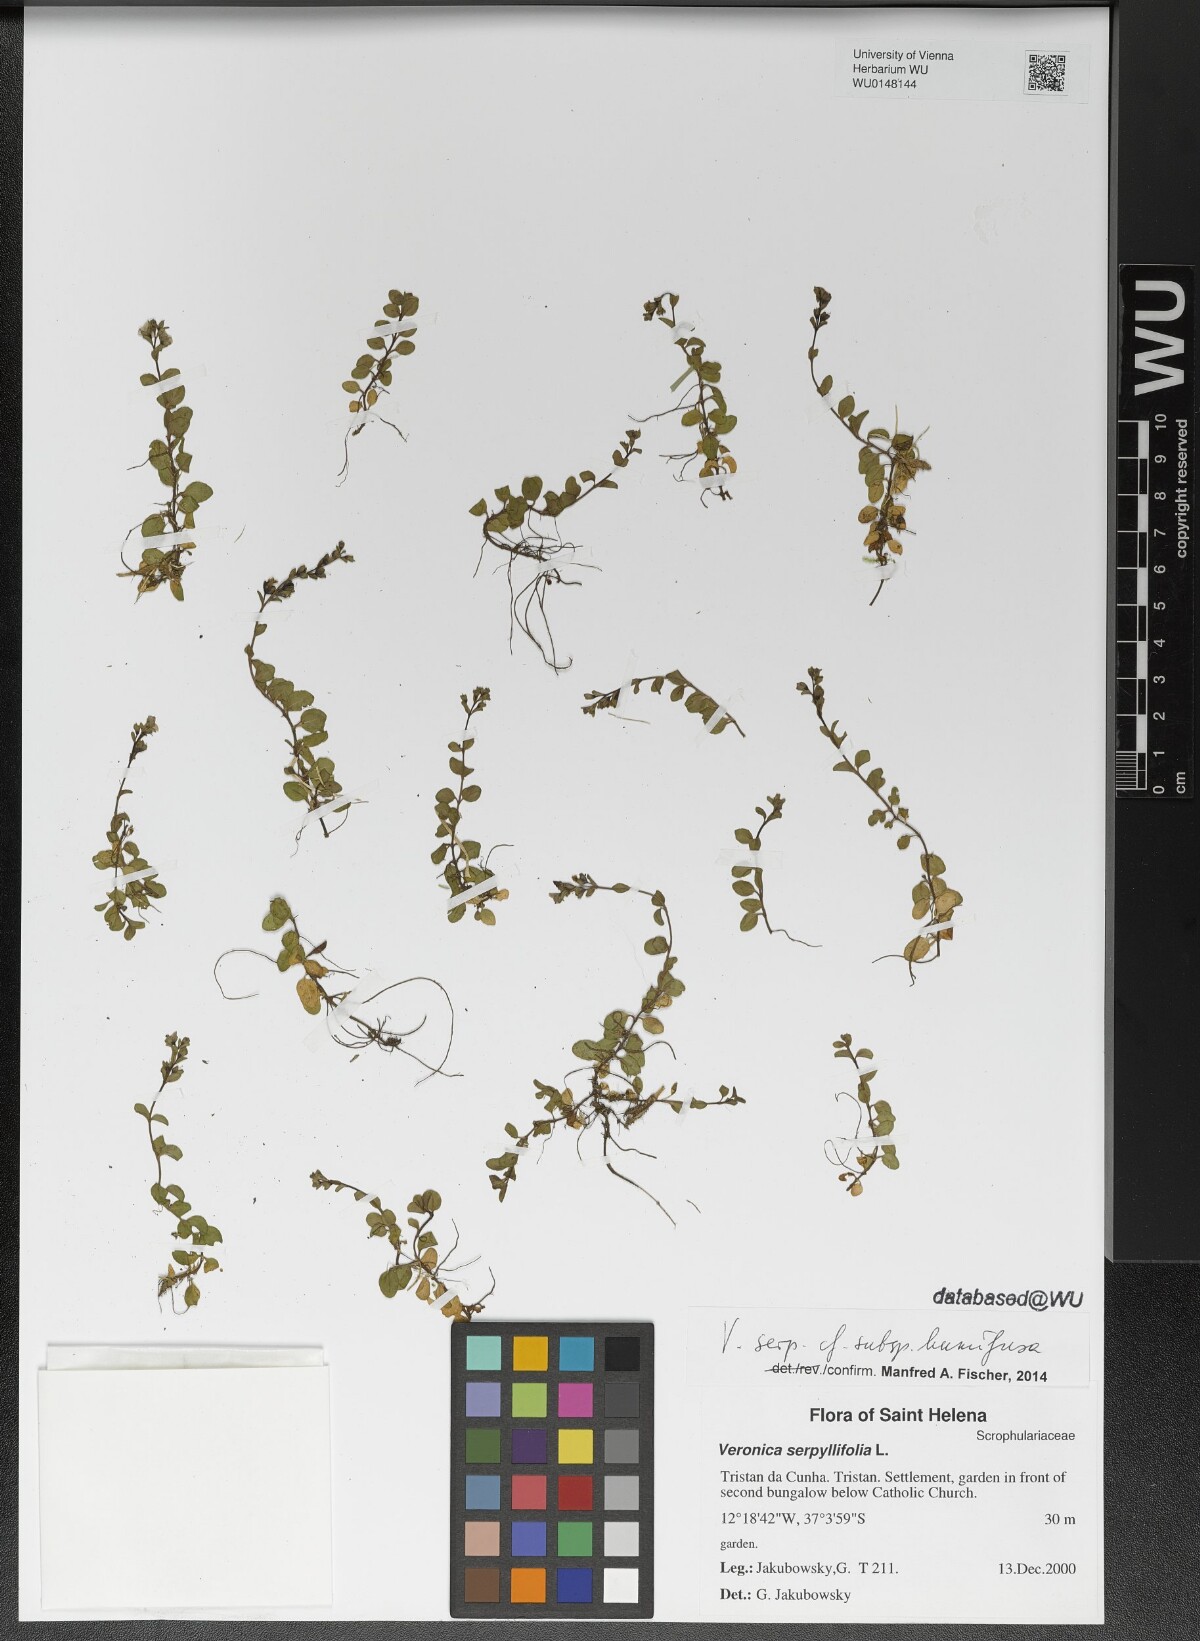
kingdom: Plantae
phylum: Tracheophyta
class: Magnoliopsida
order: Lamiales
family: Plantaginaceae
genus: Veronica
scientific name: Veronica serpyllifolia
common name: Thyme-leaved speedwell
